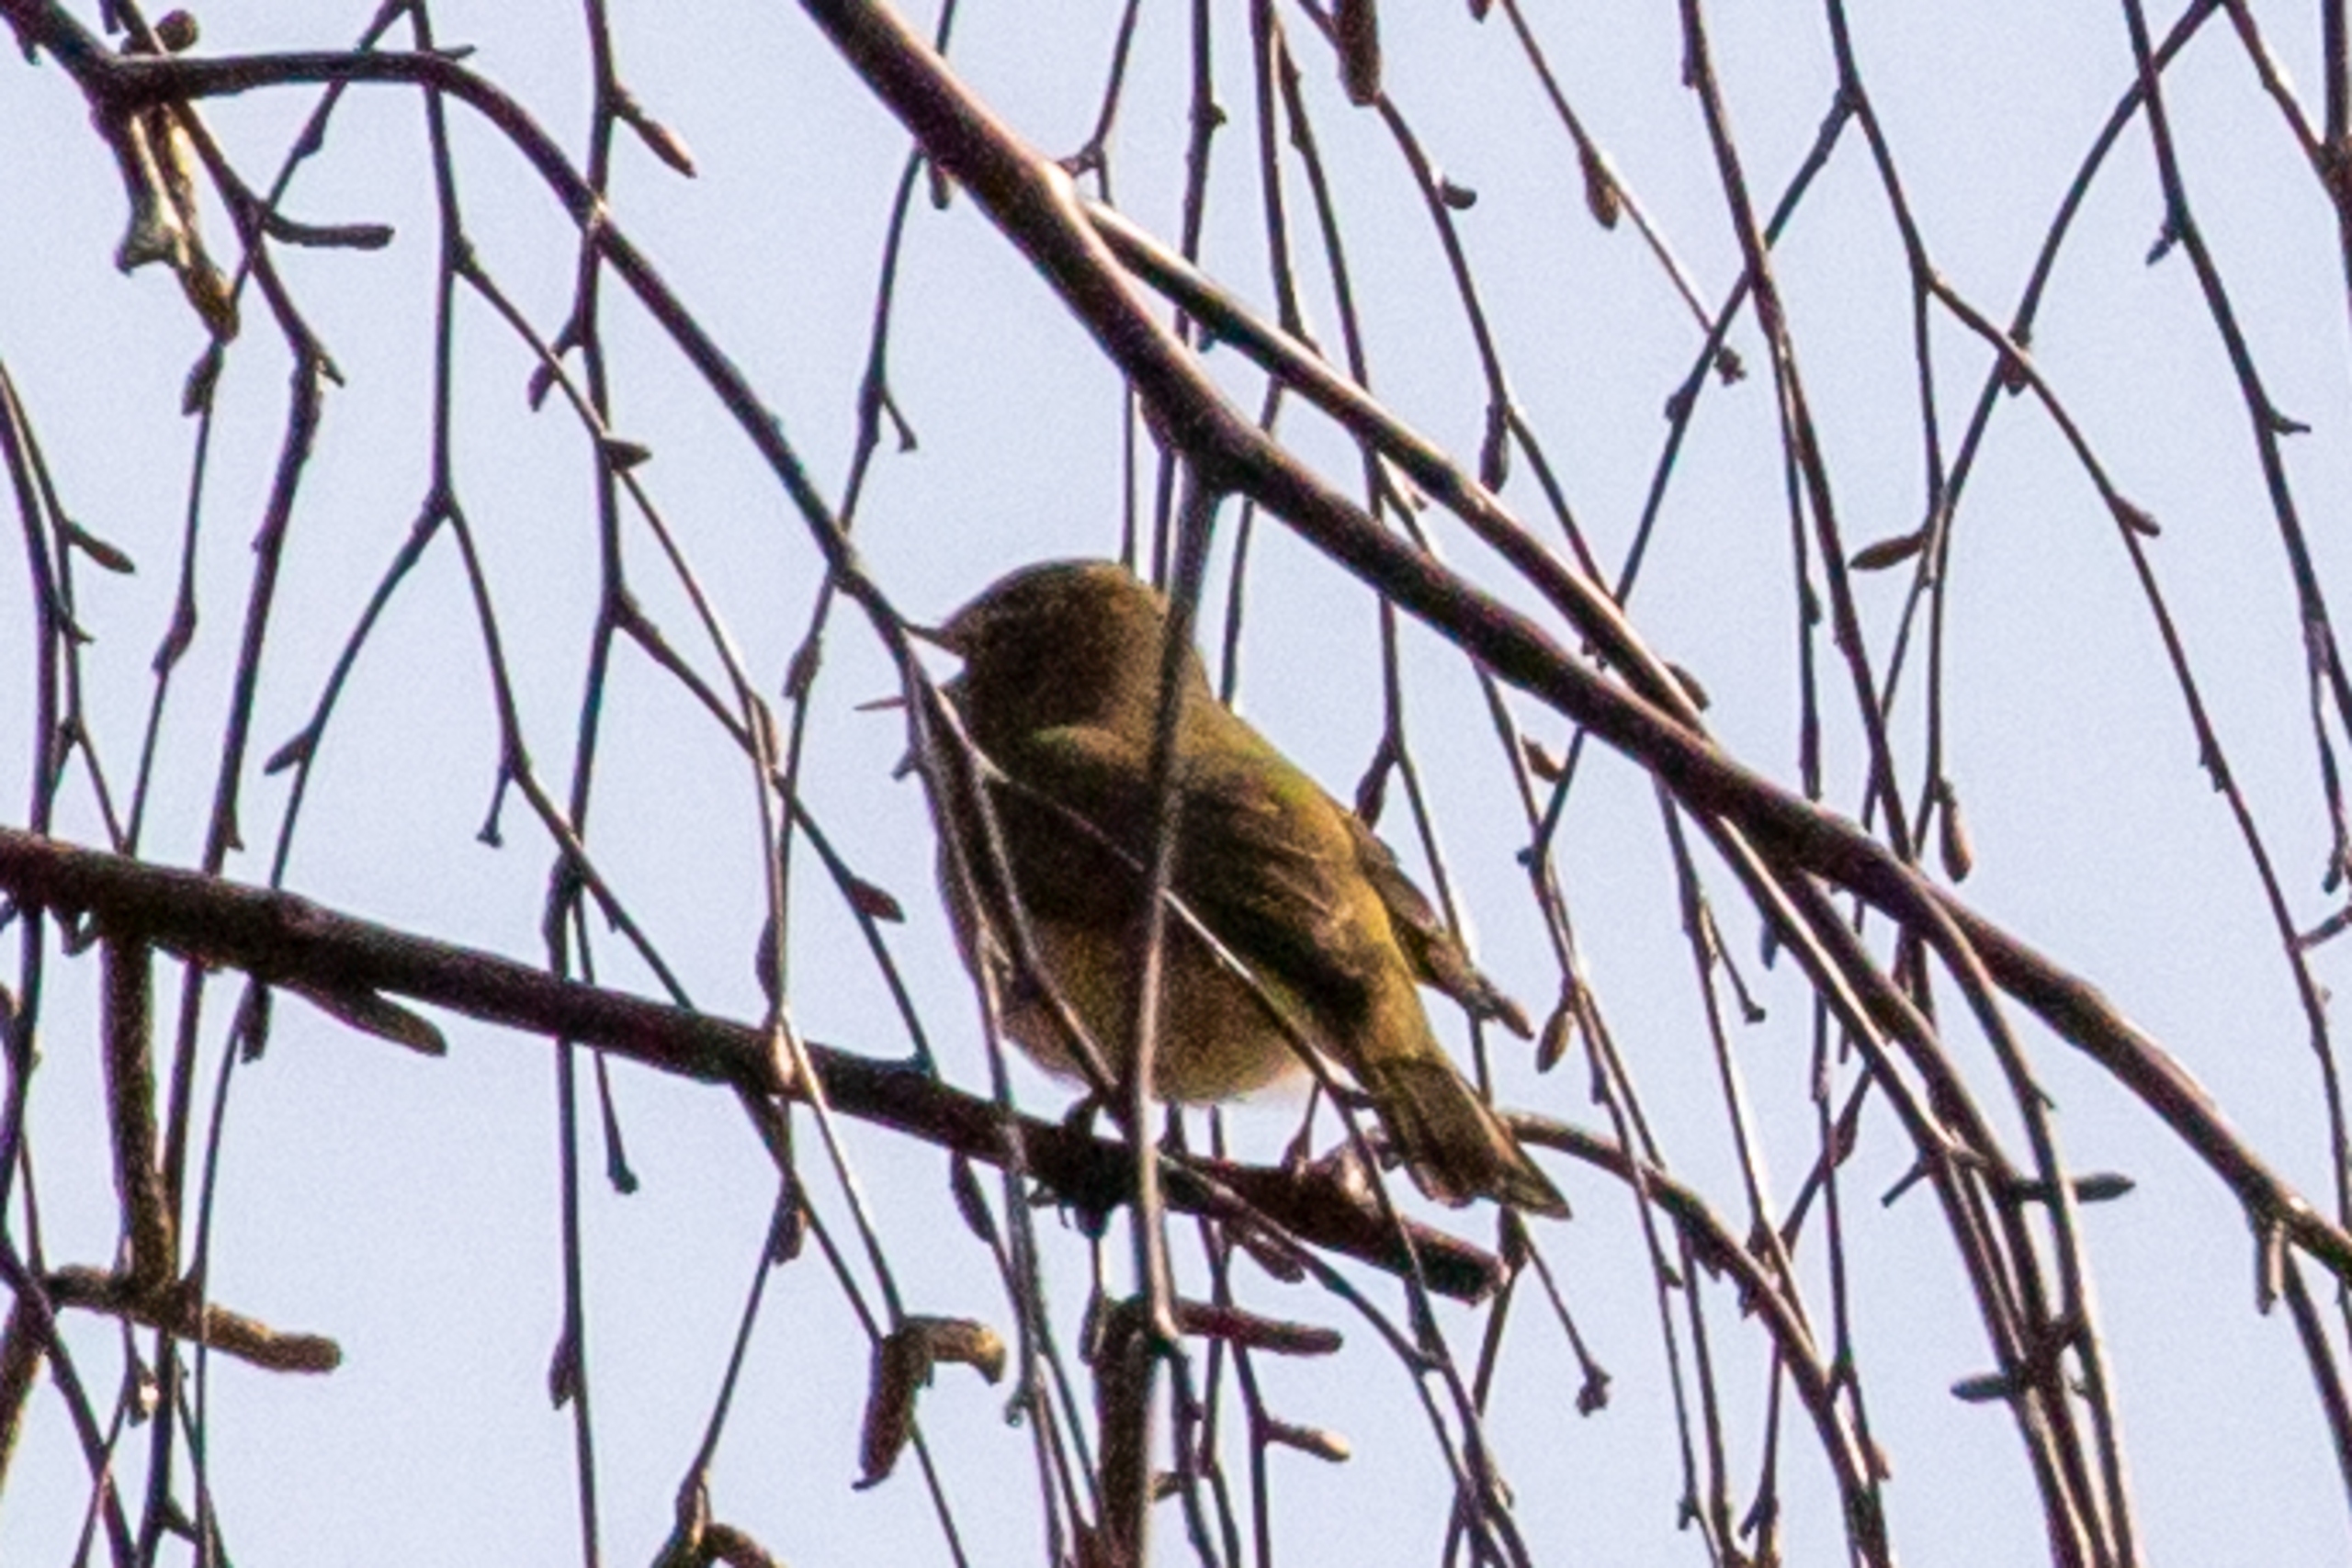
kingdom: Animalia
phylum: Chordata
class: Aves
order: Passeriformes
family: Phylloscopidae
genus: Phylloscopus
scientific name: Phylloscopus collybita
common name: Gransanger
